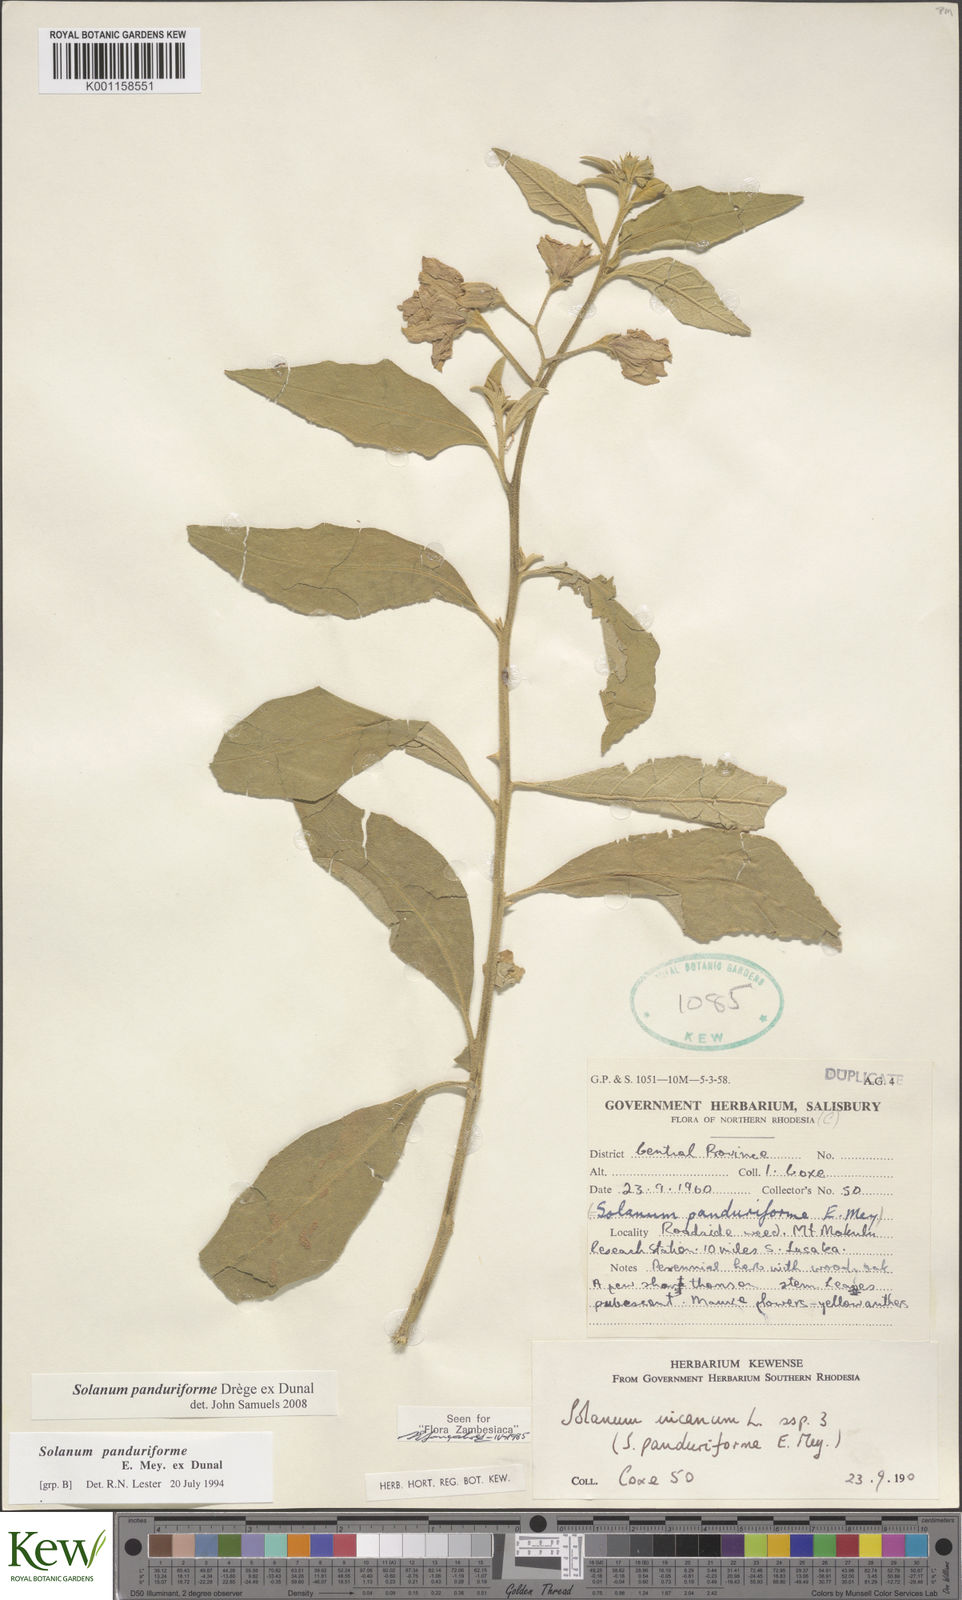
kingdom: Plantae
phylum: Tracheophyta
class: Magnoliopsida
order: Solanales
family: Solanaceae
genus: Solanum
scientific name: Solanum campylacanthum
